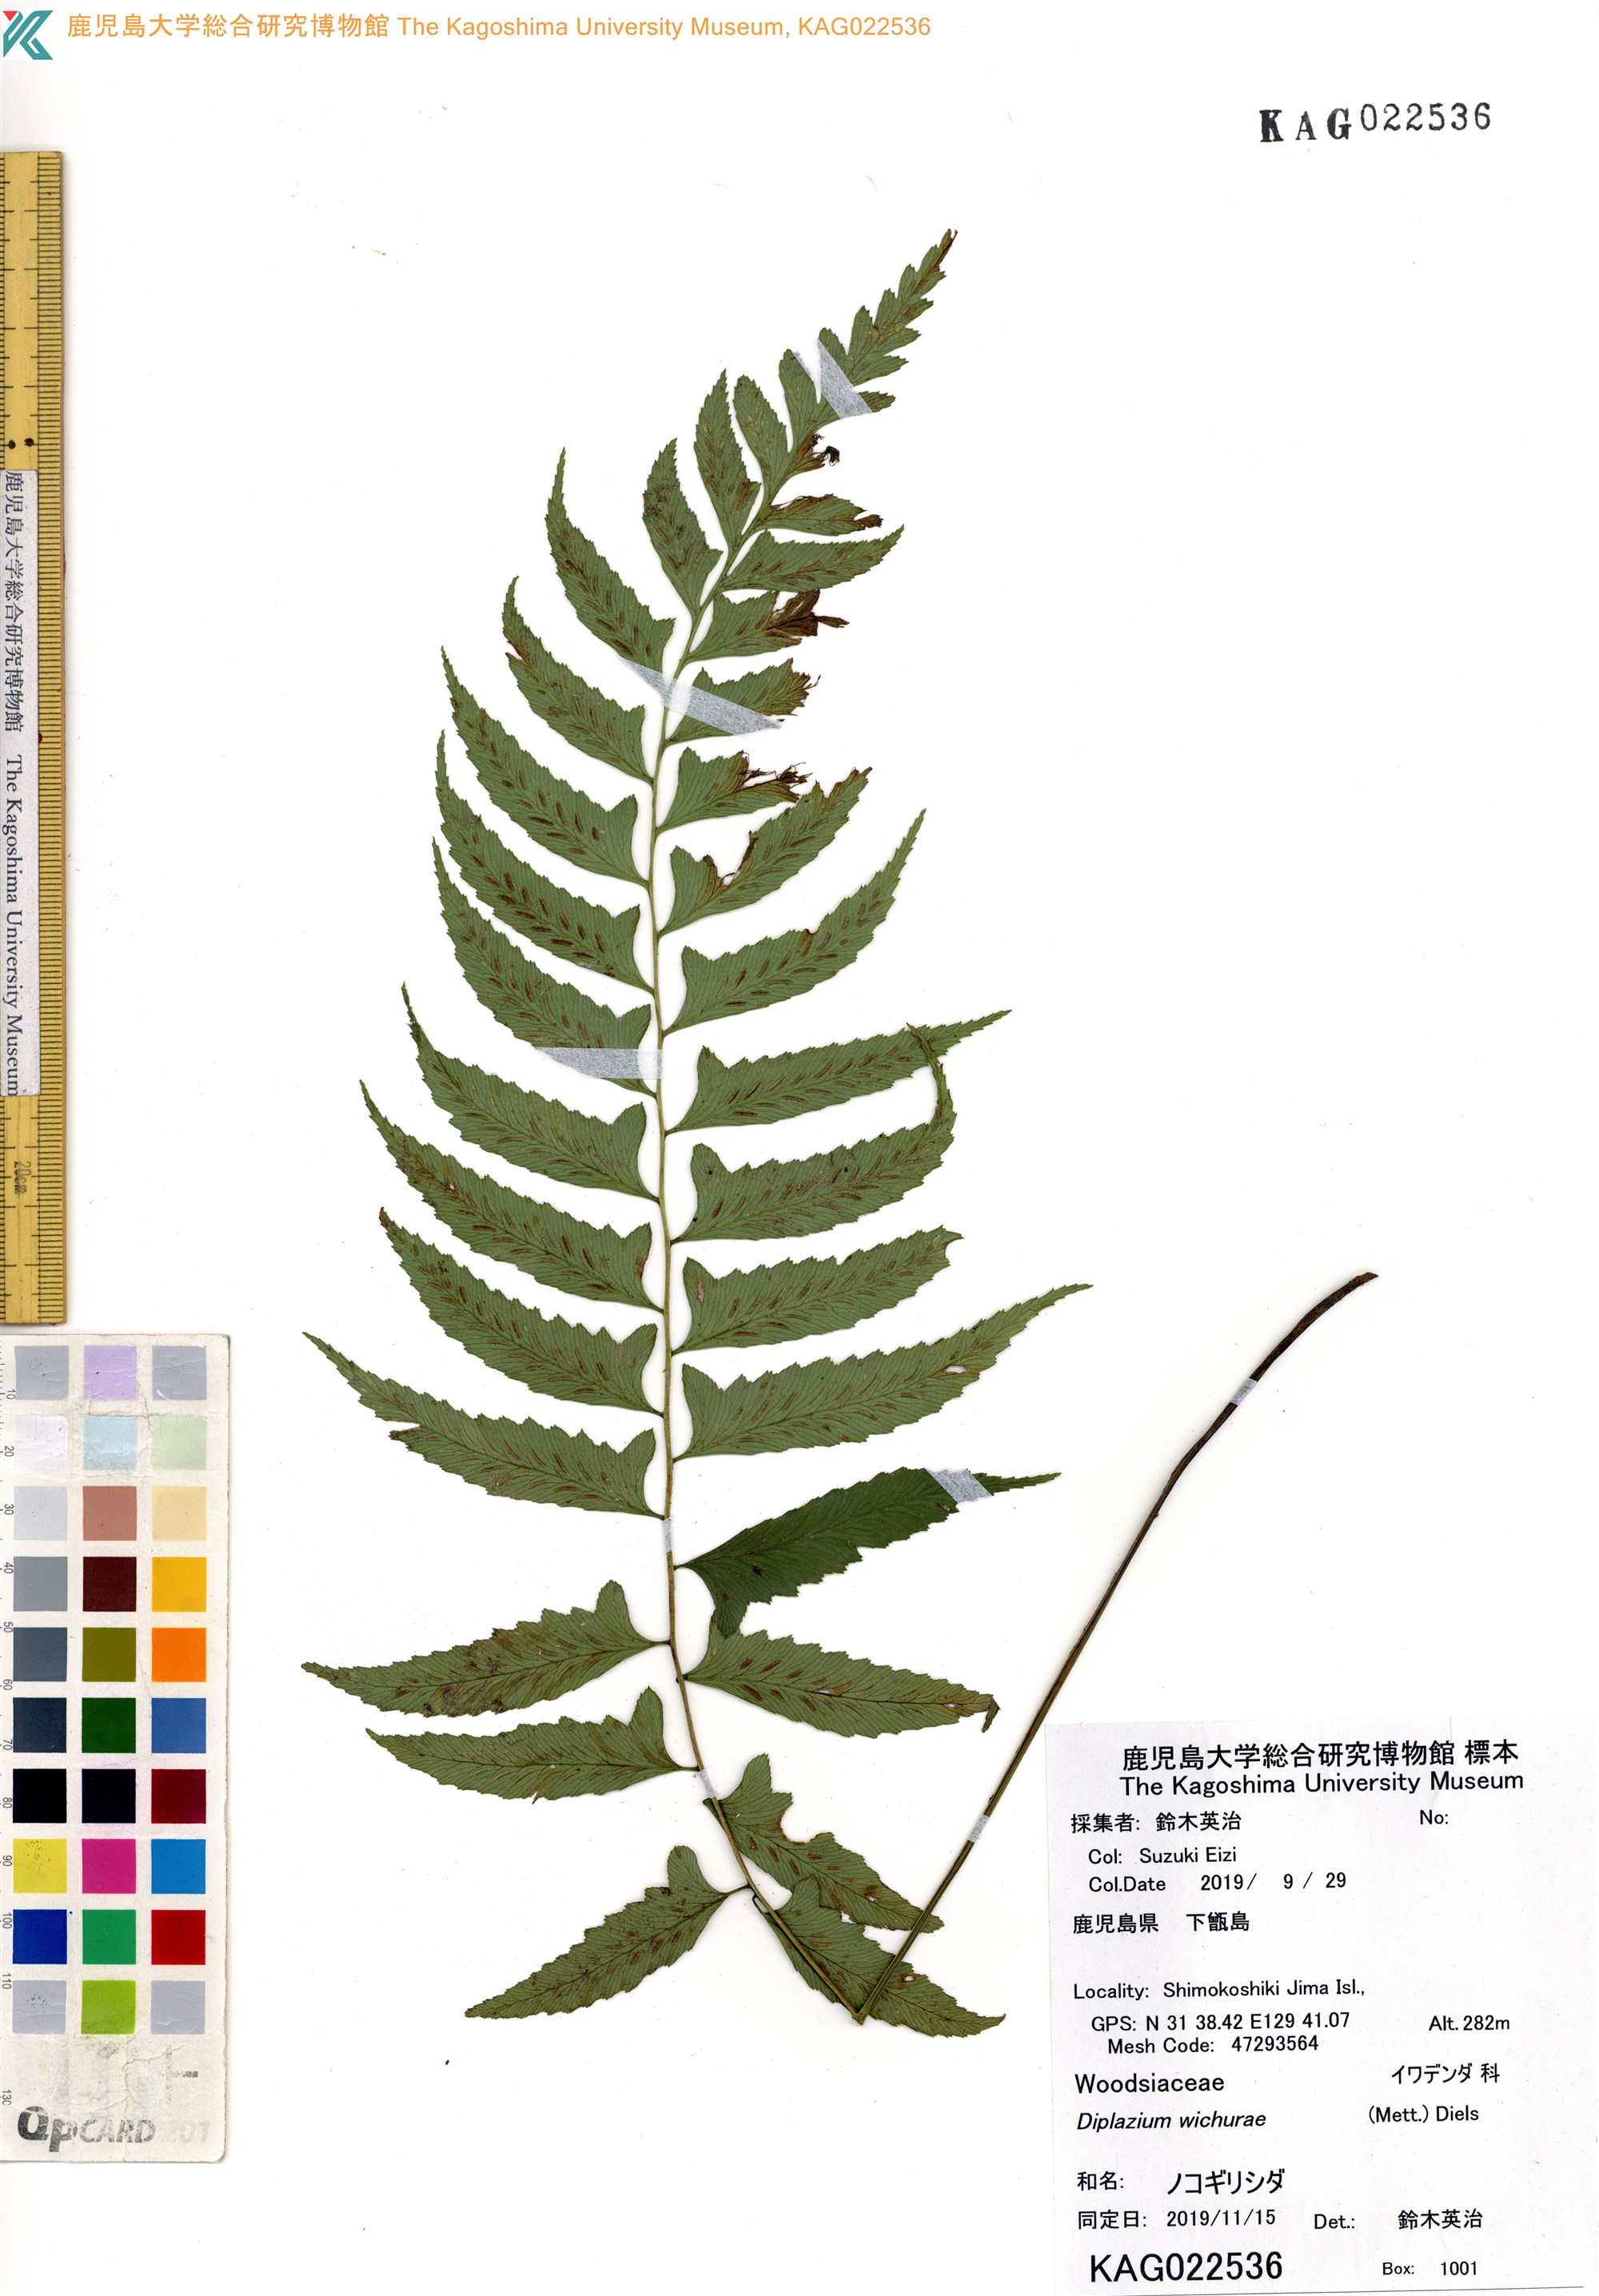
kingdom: Plantae
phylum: Tracheophyta
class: Polypodiopsida
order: Polypodiales
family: Athyriaceae
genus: Diplazium
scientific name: Diplazium wichurae
